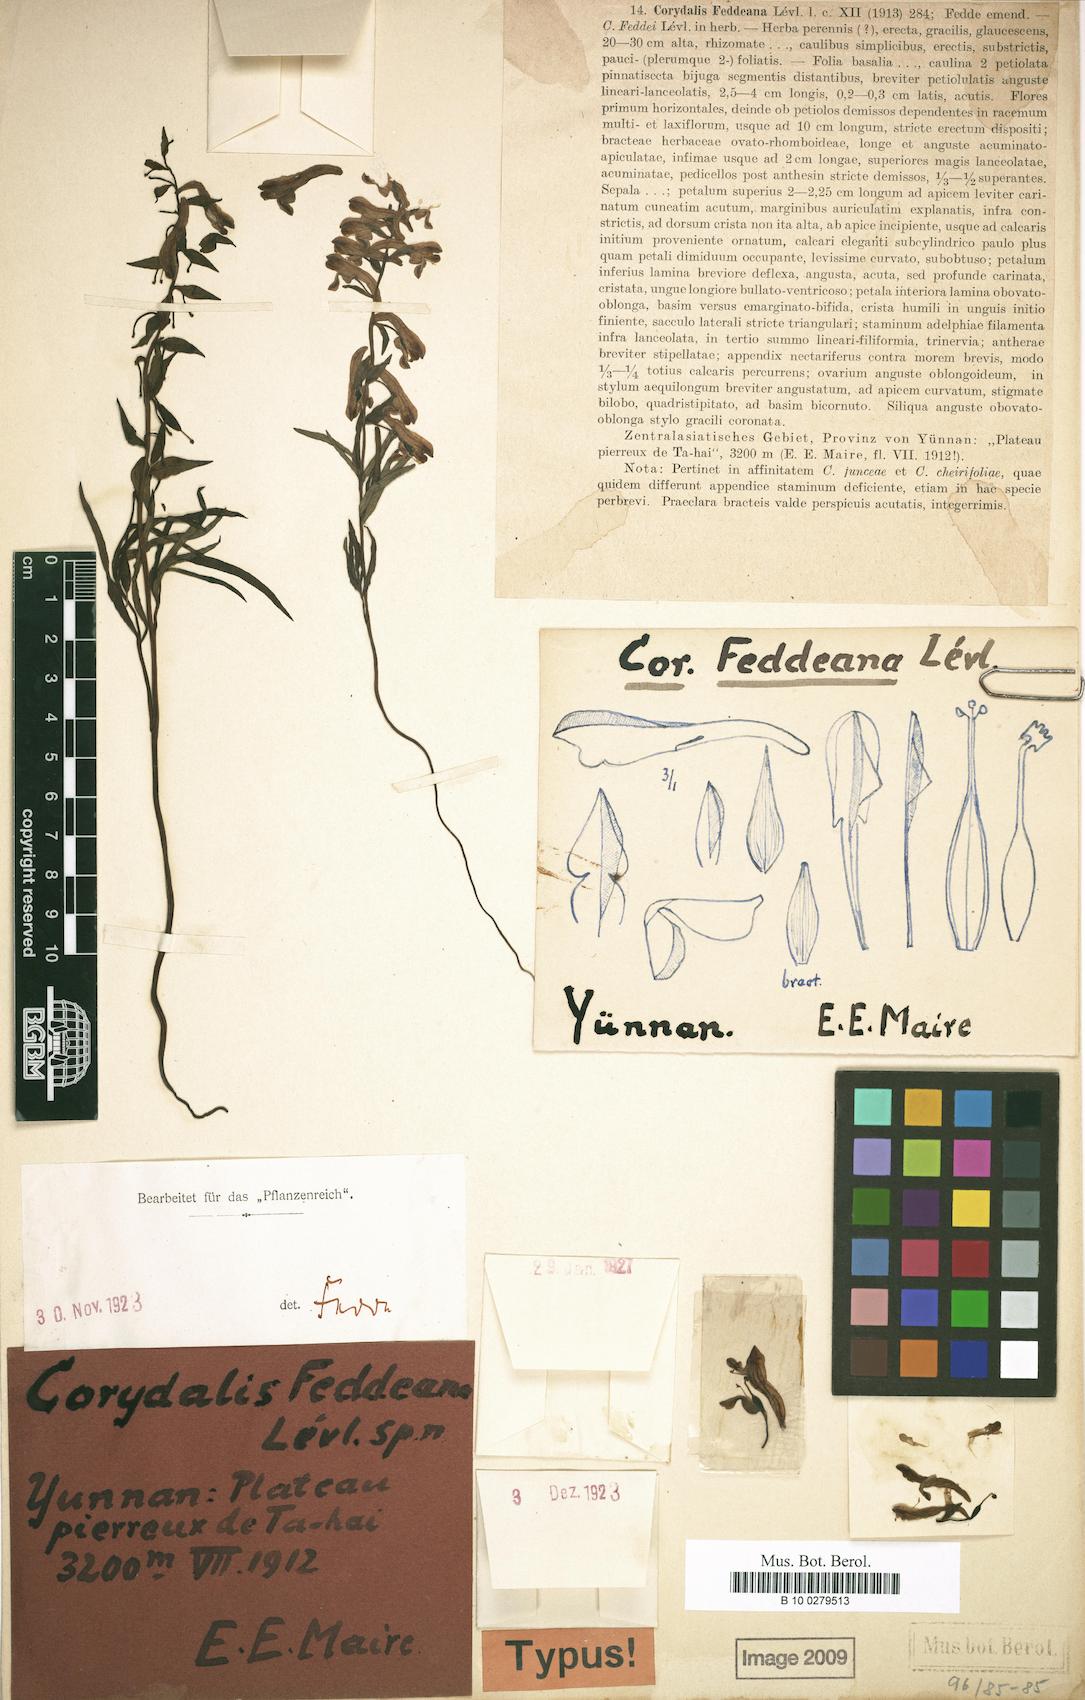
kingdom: Plantae
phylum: Tracheophyta
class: Magnoliopsida
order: Ranunculales
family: Papaveraceae
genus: Corydalis
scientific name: Corydalis feddeana
